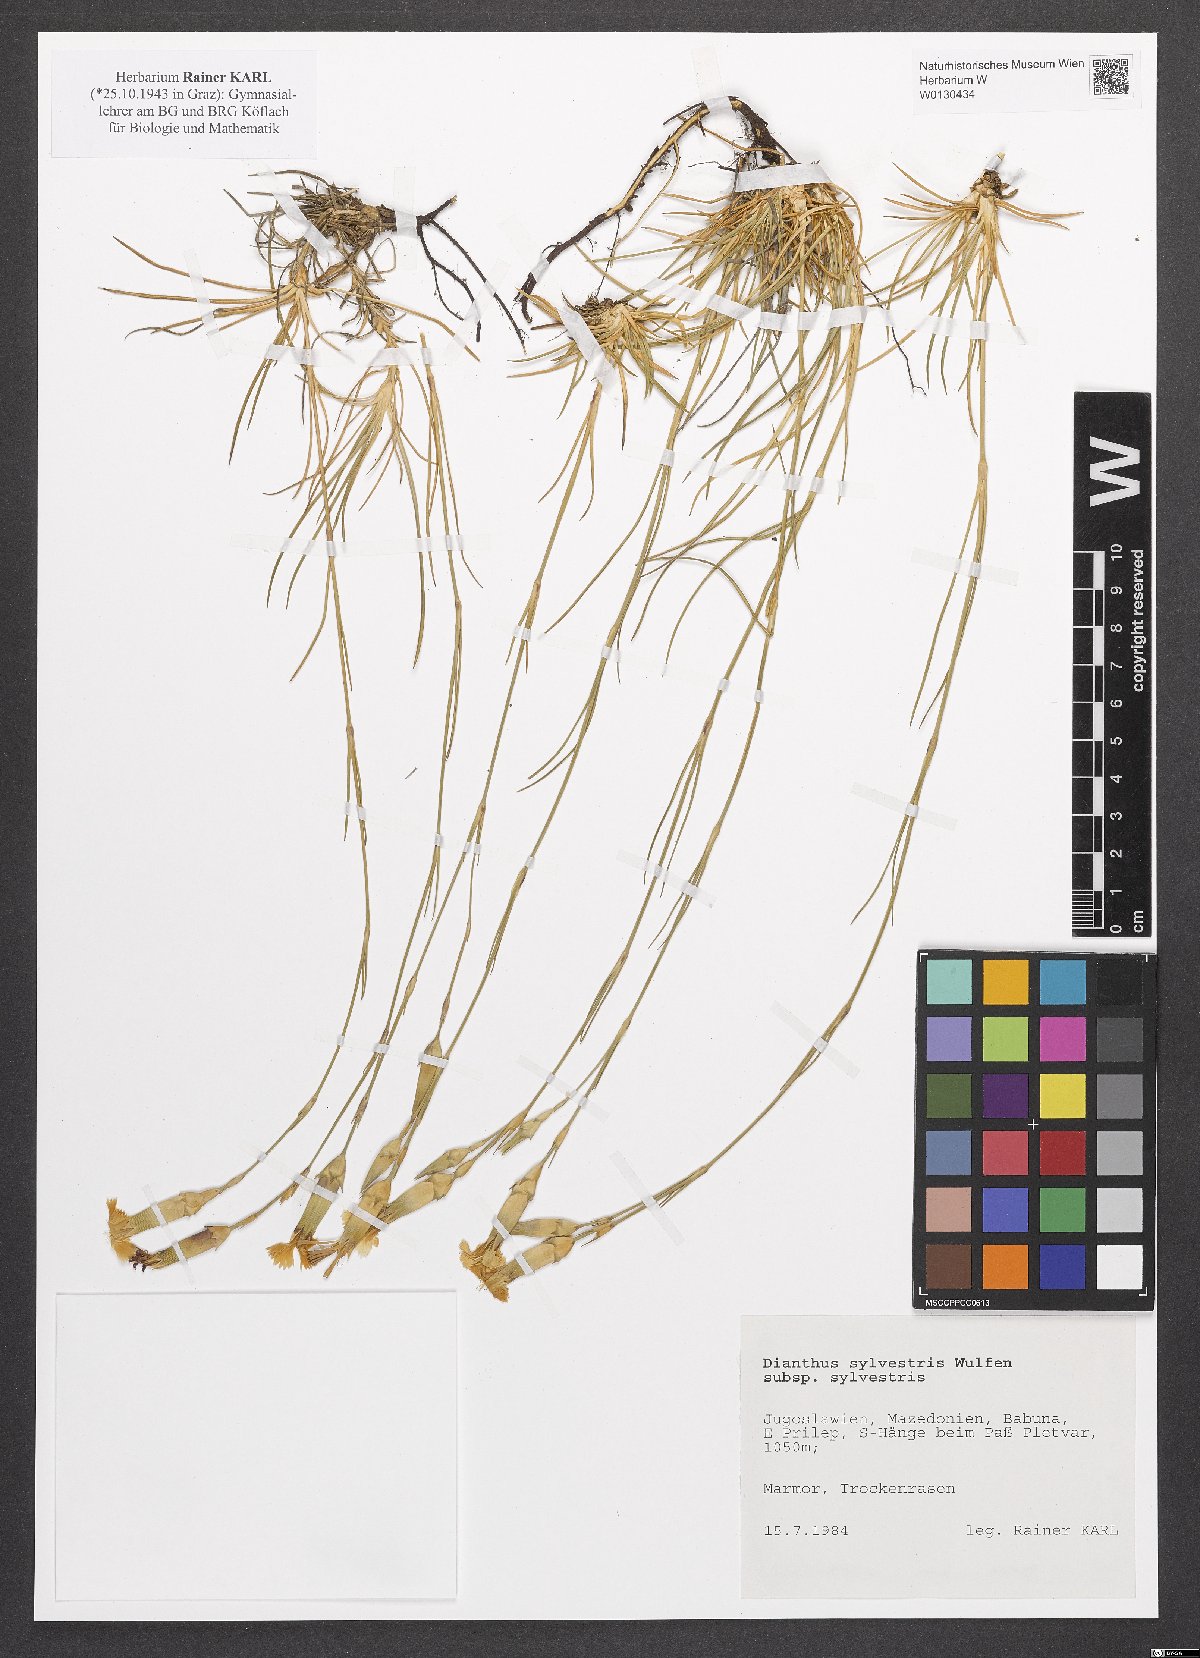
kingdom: Plantae
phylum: Tracheophyta
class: Magnoliopsida
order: Caryophyllales
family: Caryophyllaceae
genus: Dianthus
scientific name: Dianthus sylvestris
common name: Wood pink
